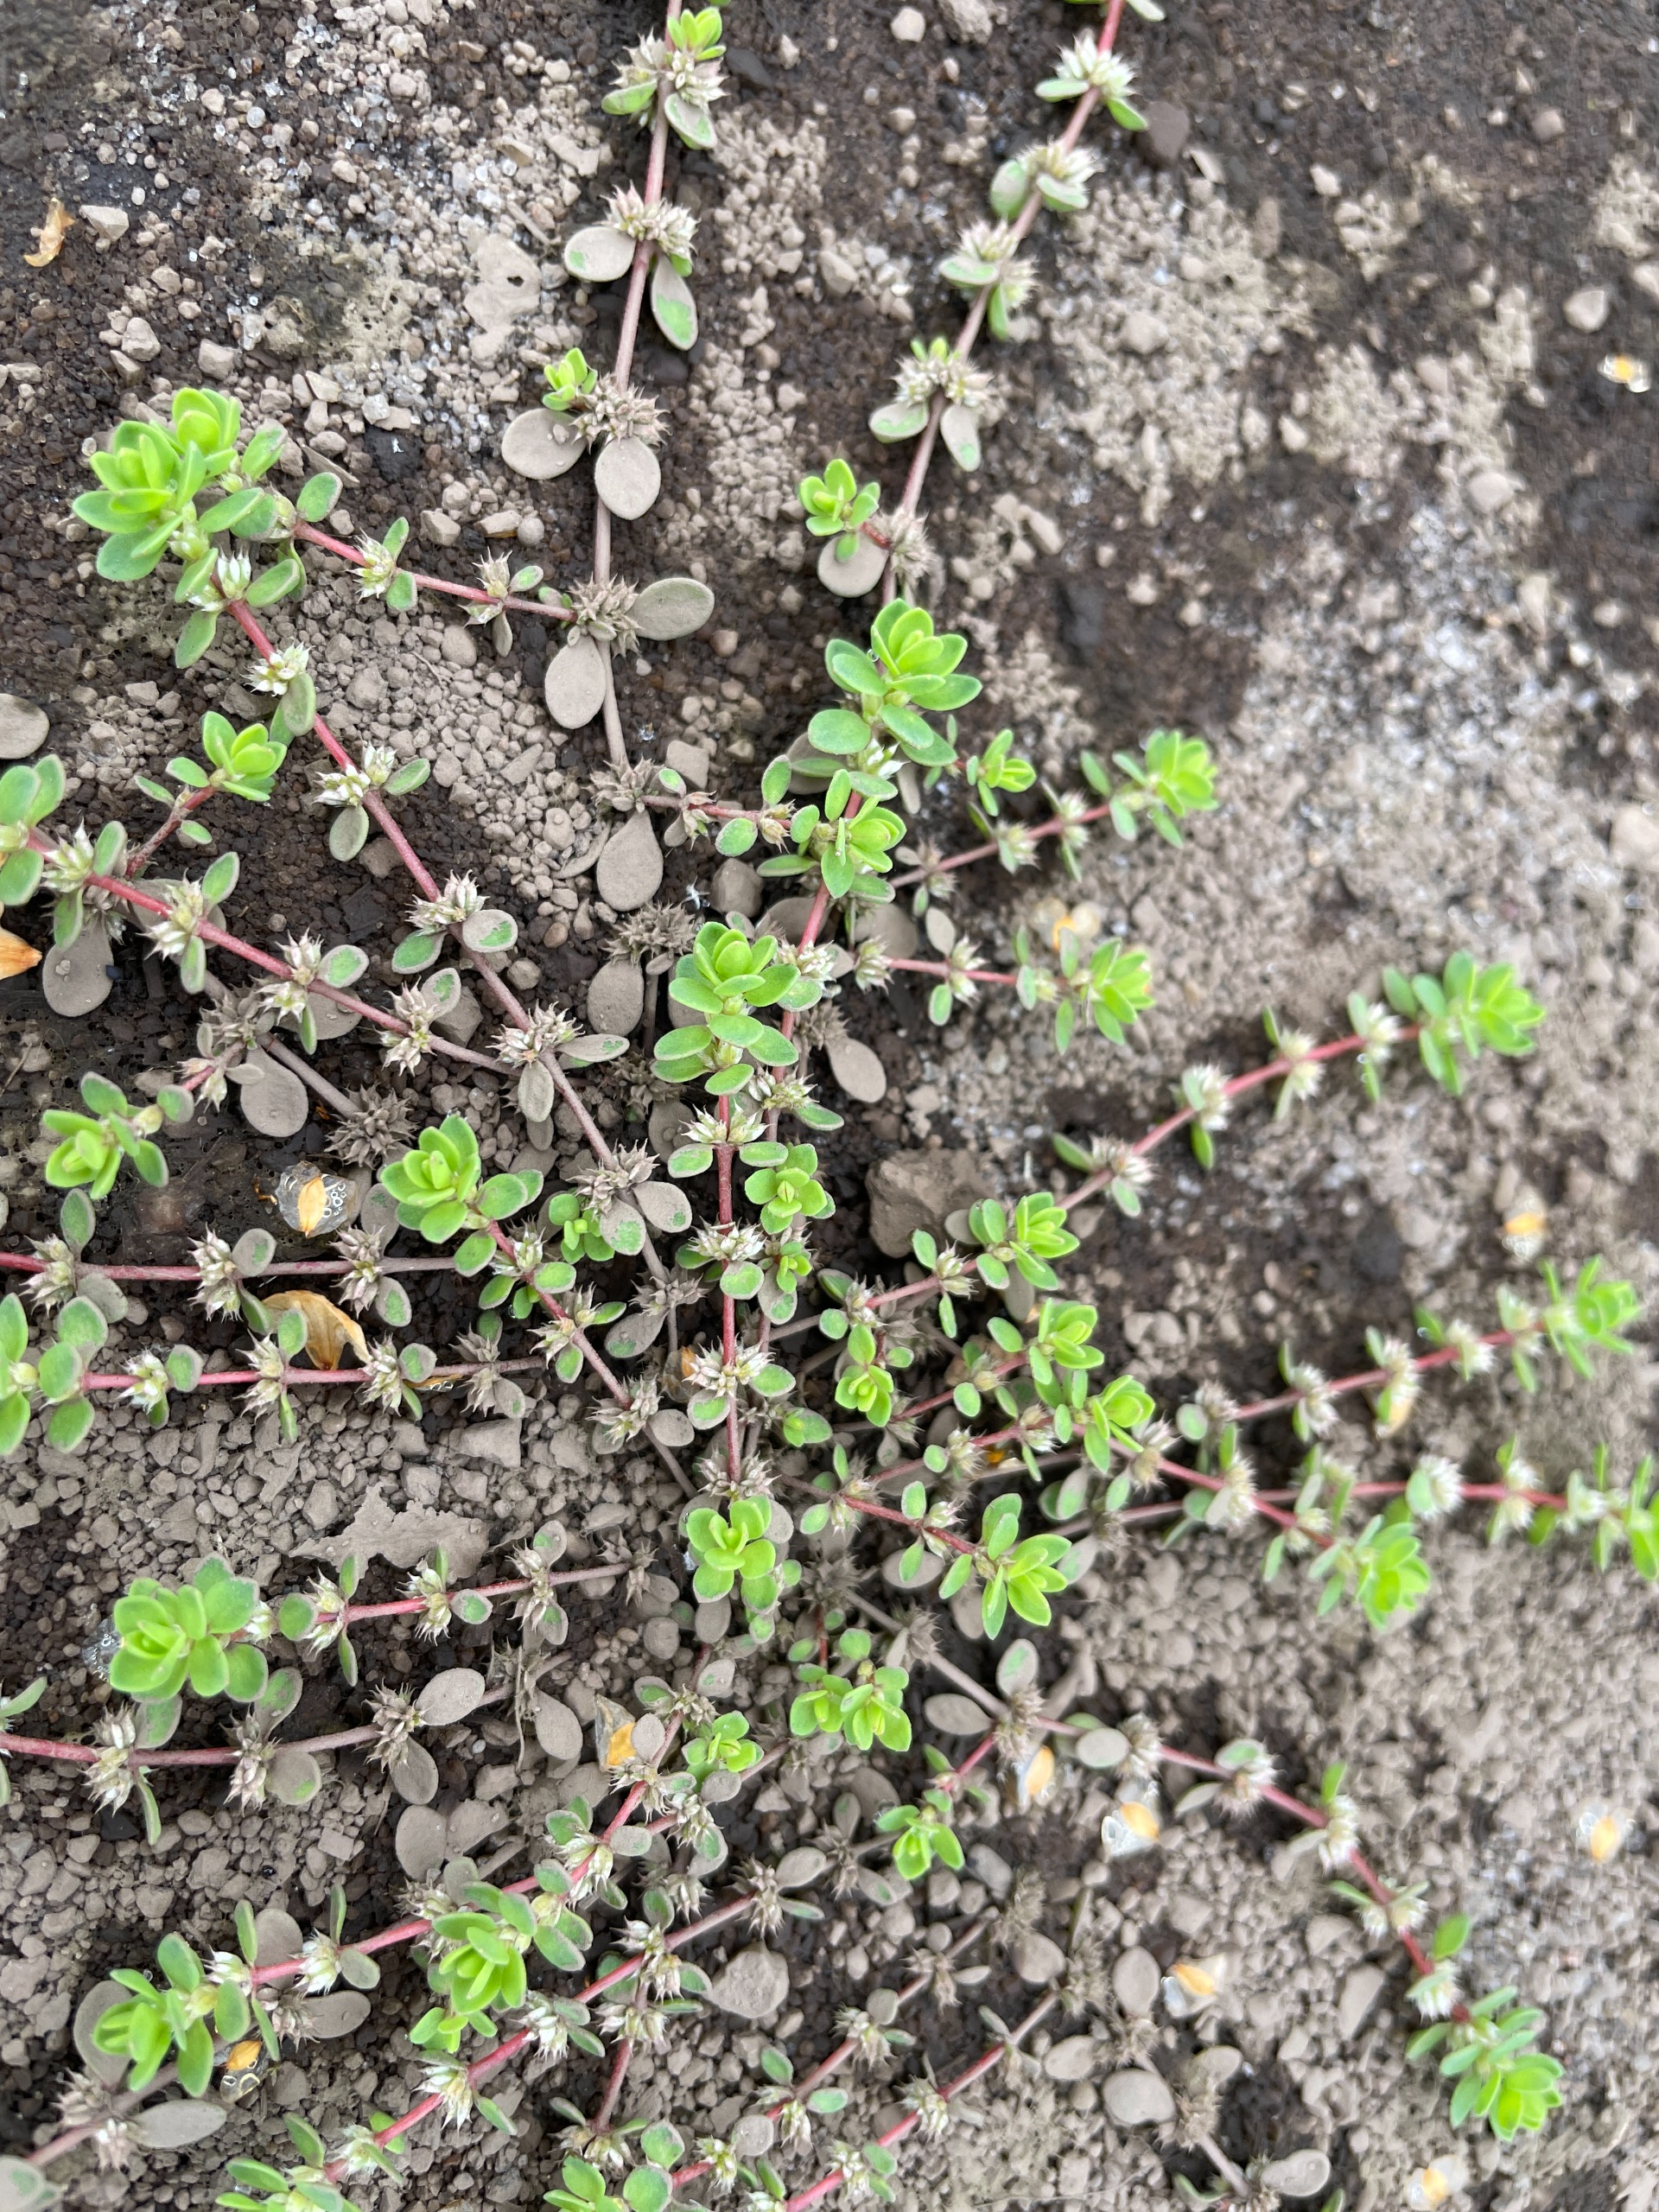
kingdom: Plantae
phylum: Tracheophyta
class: Magnoliopsida
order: Caryophyllales
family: Caryophyllaceae
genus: Illecebrum
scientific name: Illecebrum verticillatum
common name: Bruskbæger
